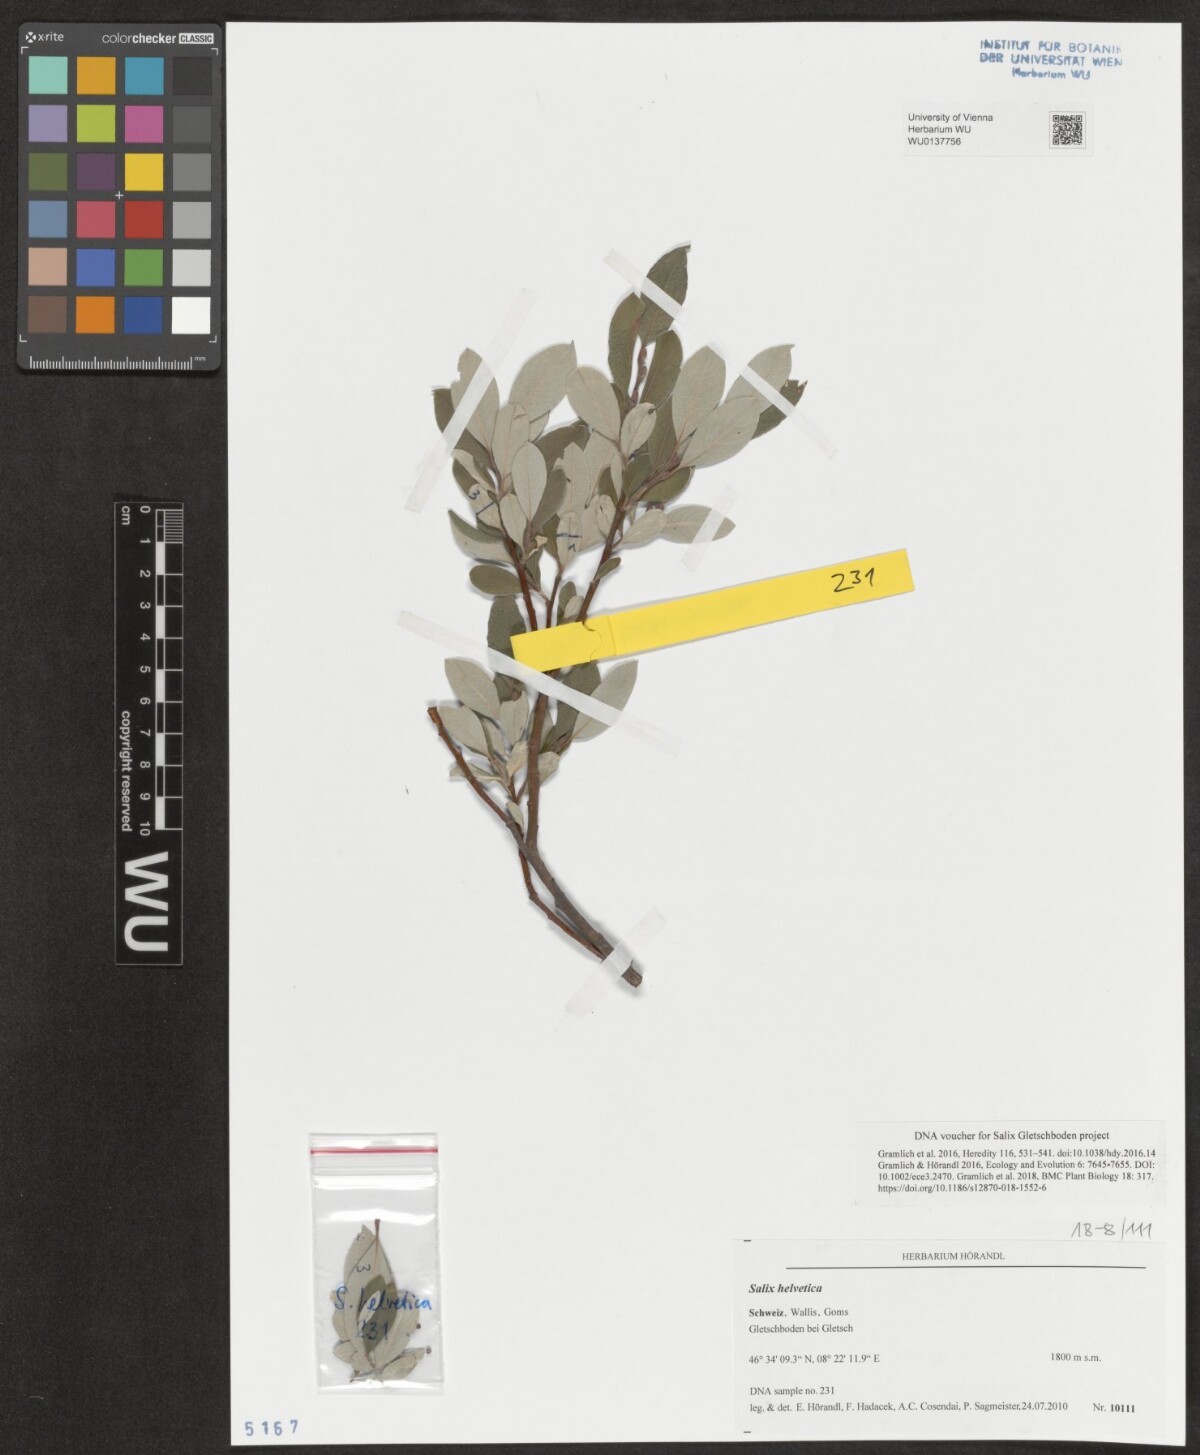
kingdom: Plantae
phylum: Tracheophyta
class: Magnoliopsida
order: Malpighiales
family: Salicaceae
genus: Salix
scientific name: Salix helvetica
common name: Swiss willow
